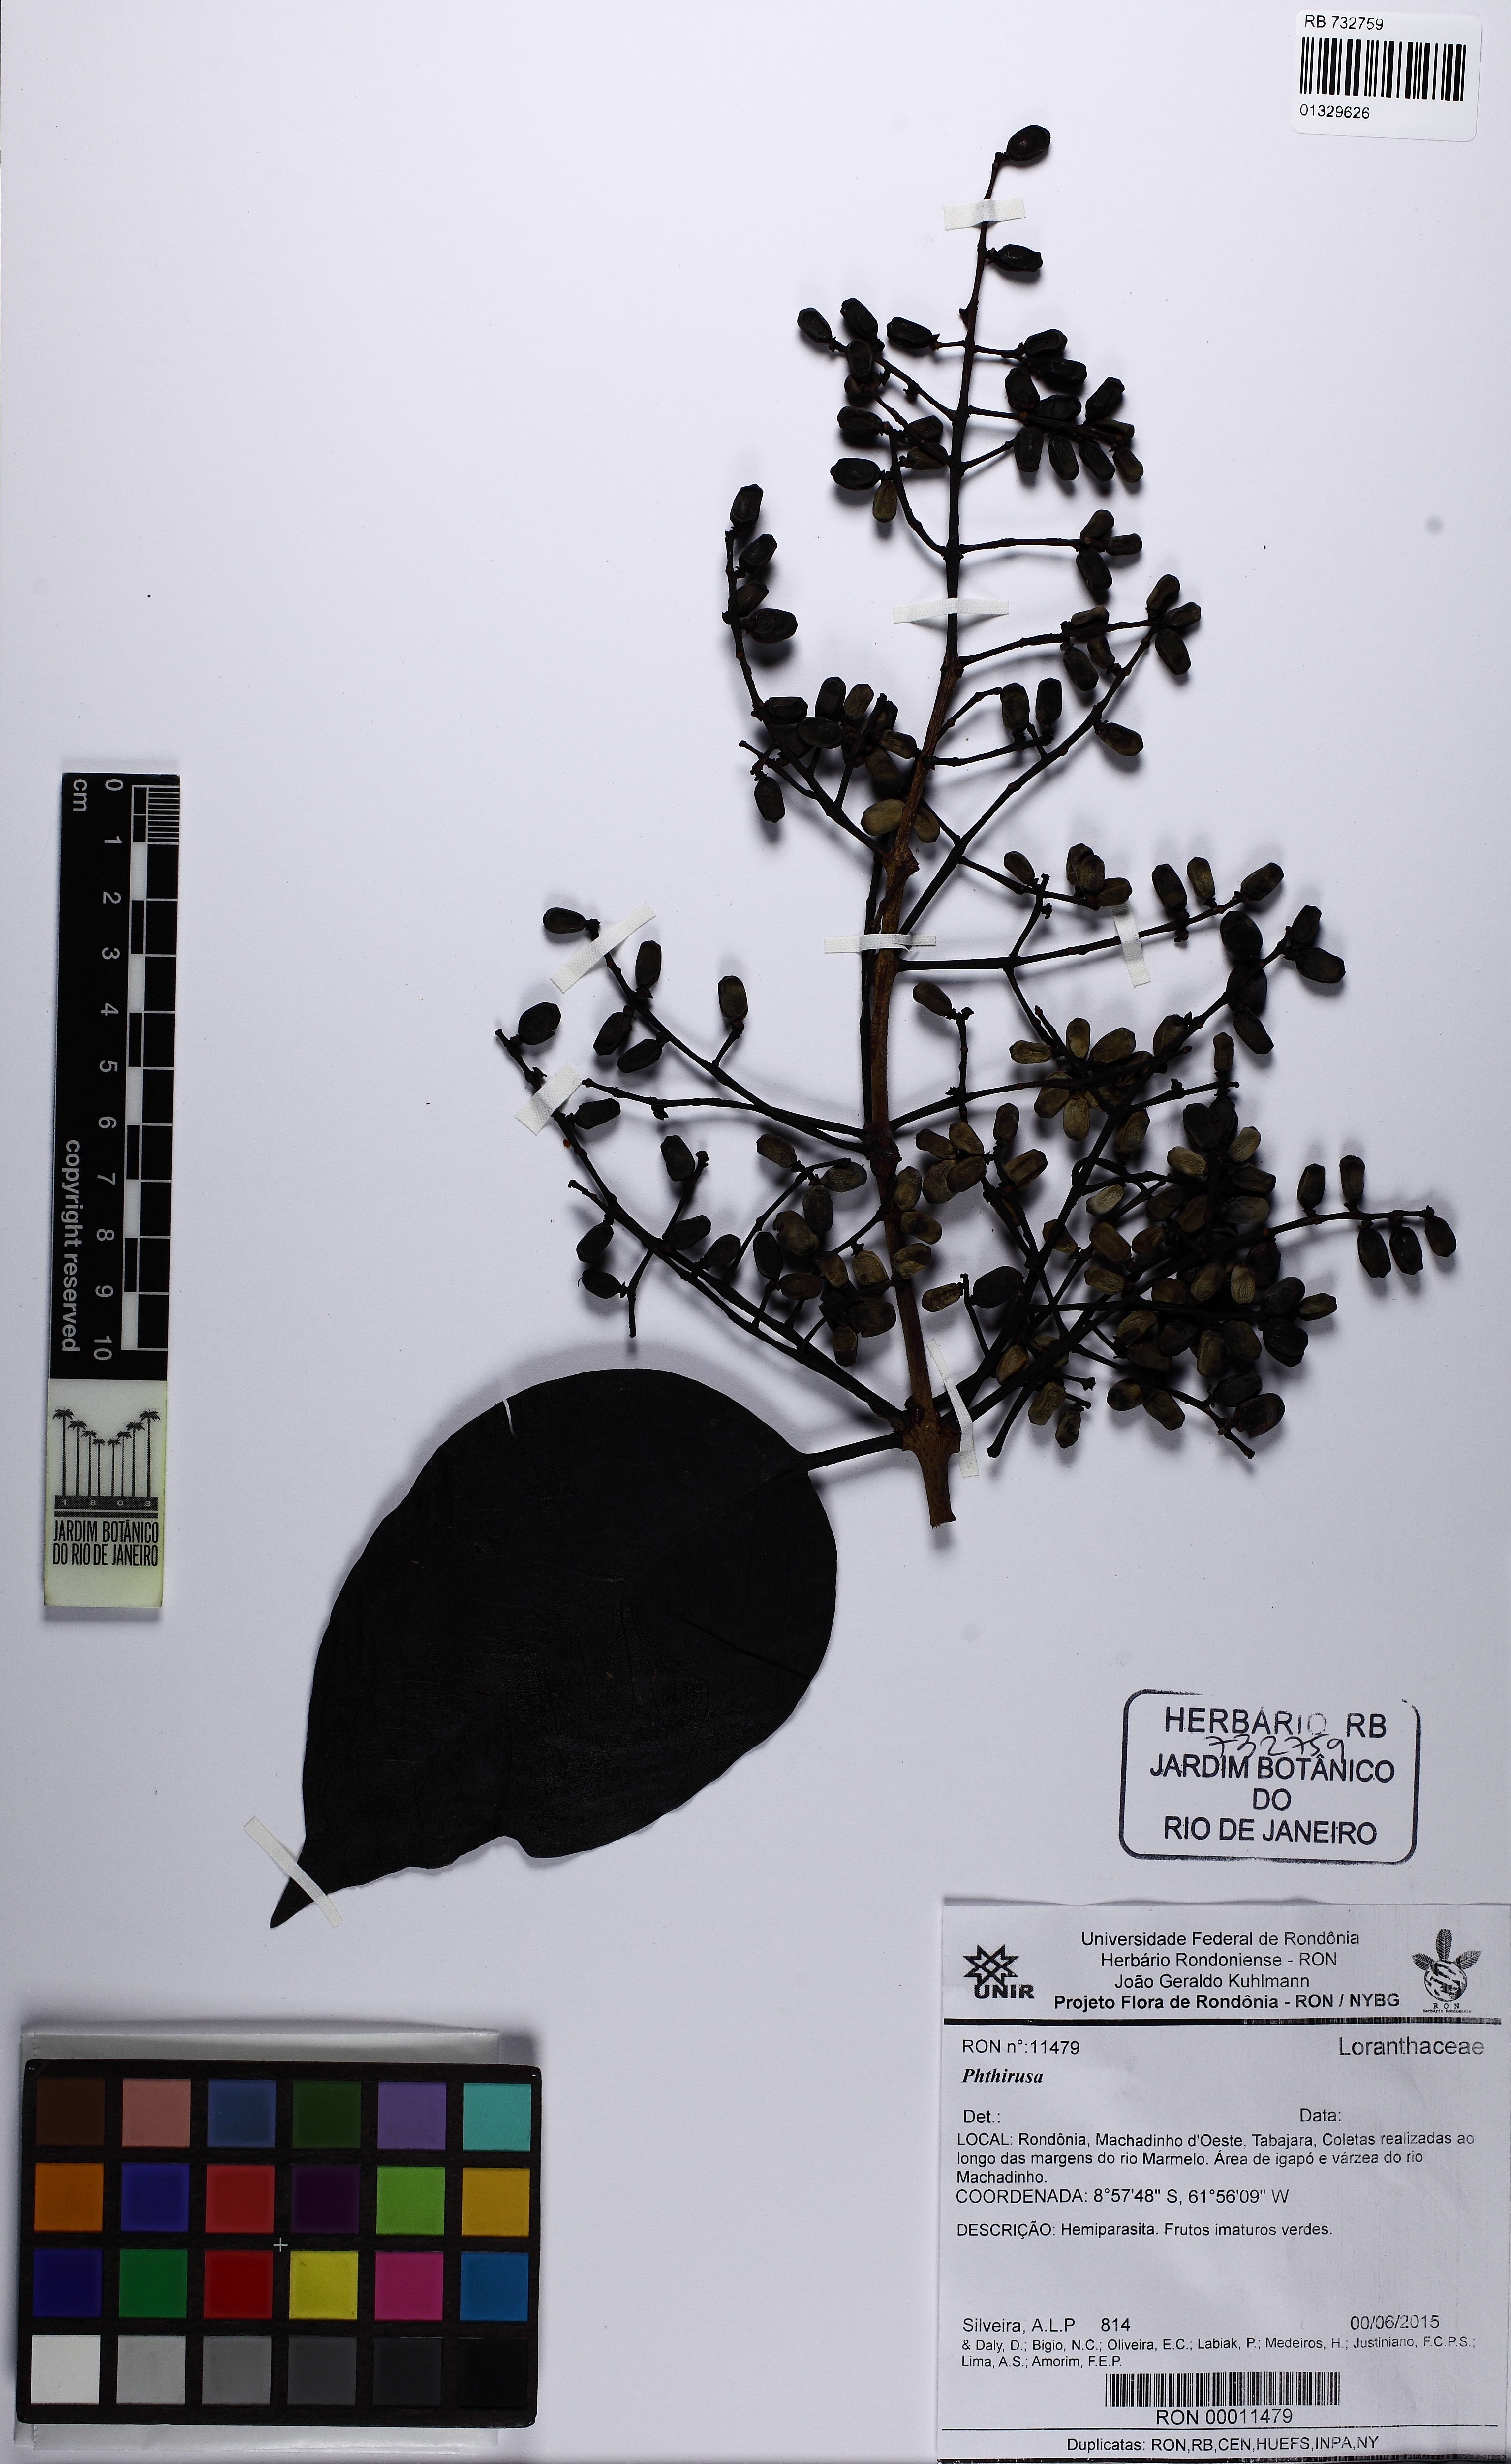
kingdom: Plantae
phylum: Tracheophyta
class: Magnoliopsida
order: Santalales
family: Loranthaceae
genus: Passovia
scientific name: Passovia pedunculata
